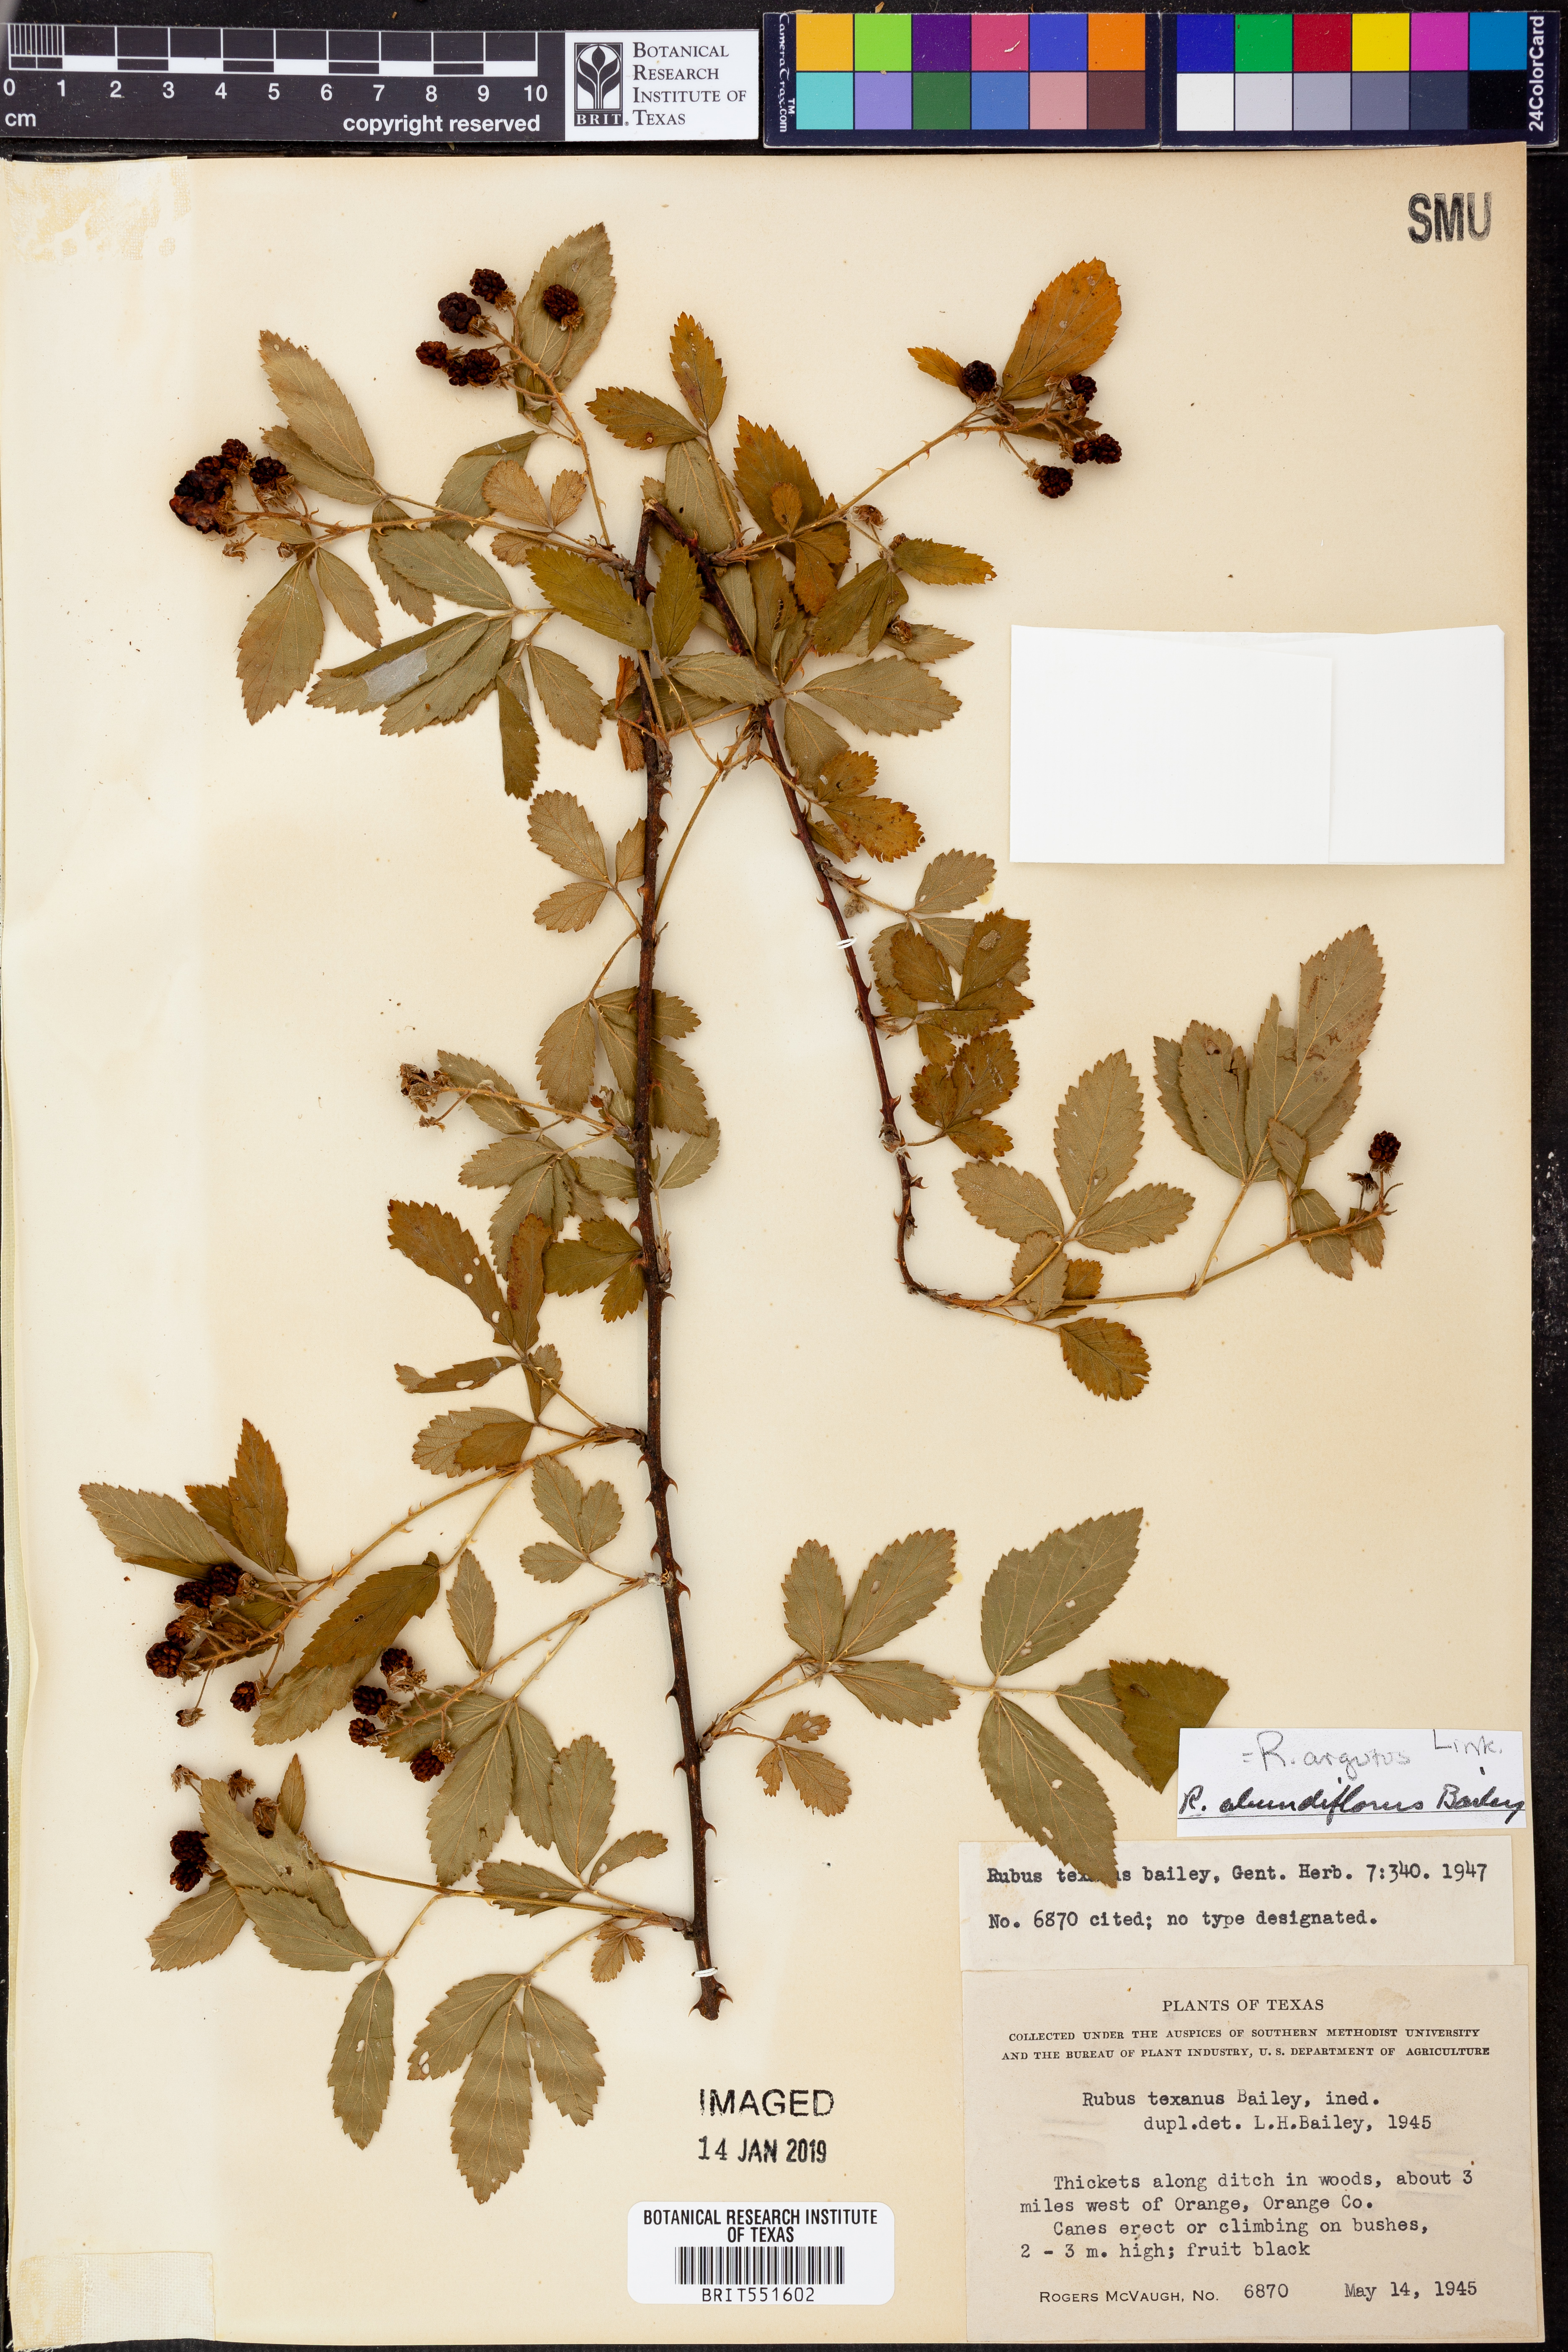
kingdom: Plantae
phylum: Tracheophyta
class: Magnoliopsida
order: Rosales
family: Rosaceae
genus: Rubus
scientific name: Rubus argutus
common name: Sawtooth blackberry
